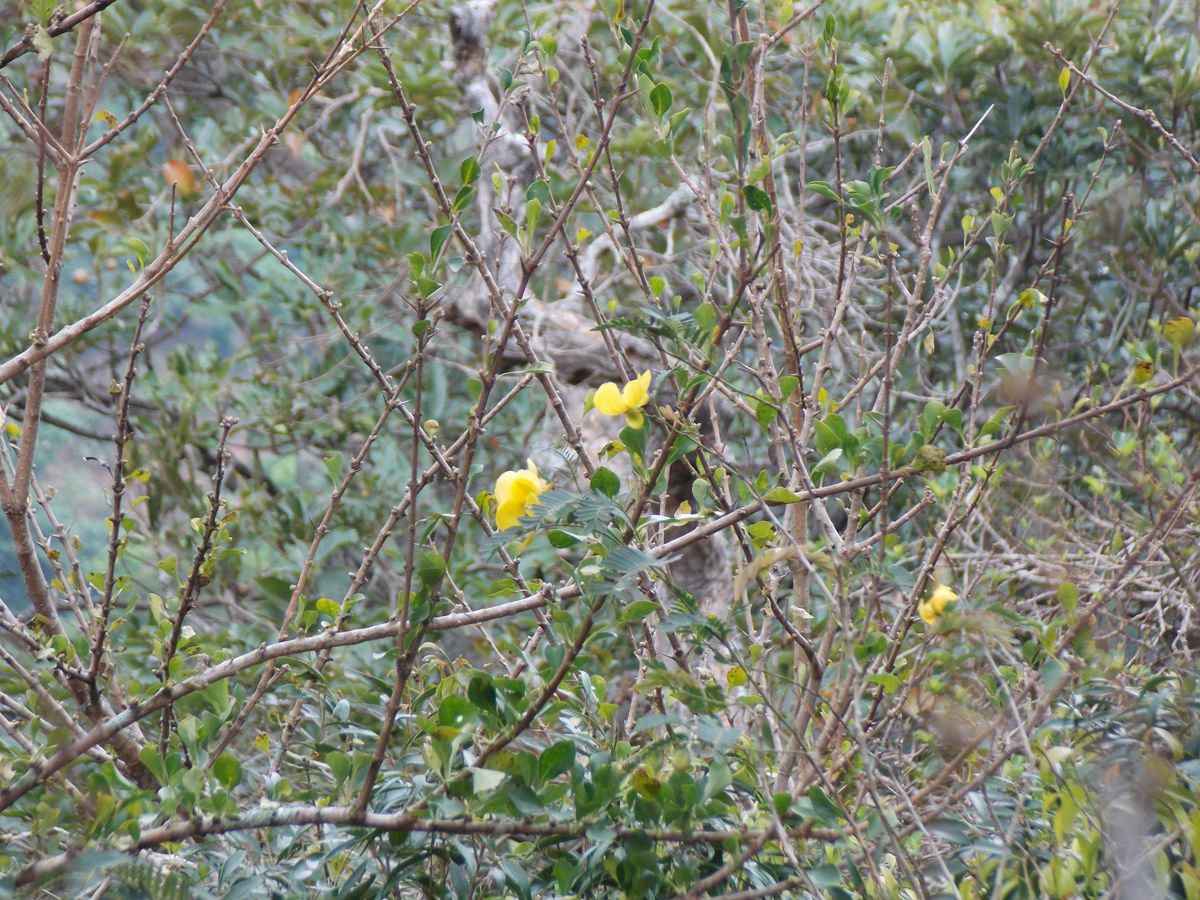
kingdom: Plantae
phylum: Tracheophyta
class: Magnoliopsida
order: Fabales
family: Fabaceae
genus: Senna
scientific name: Senna pallida
